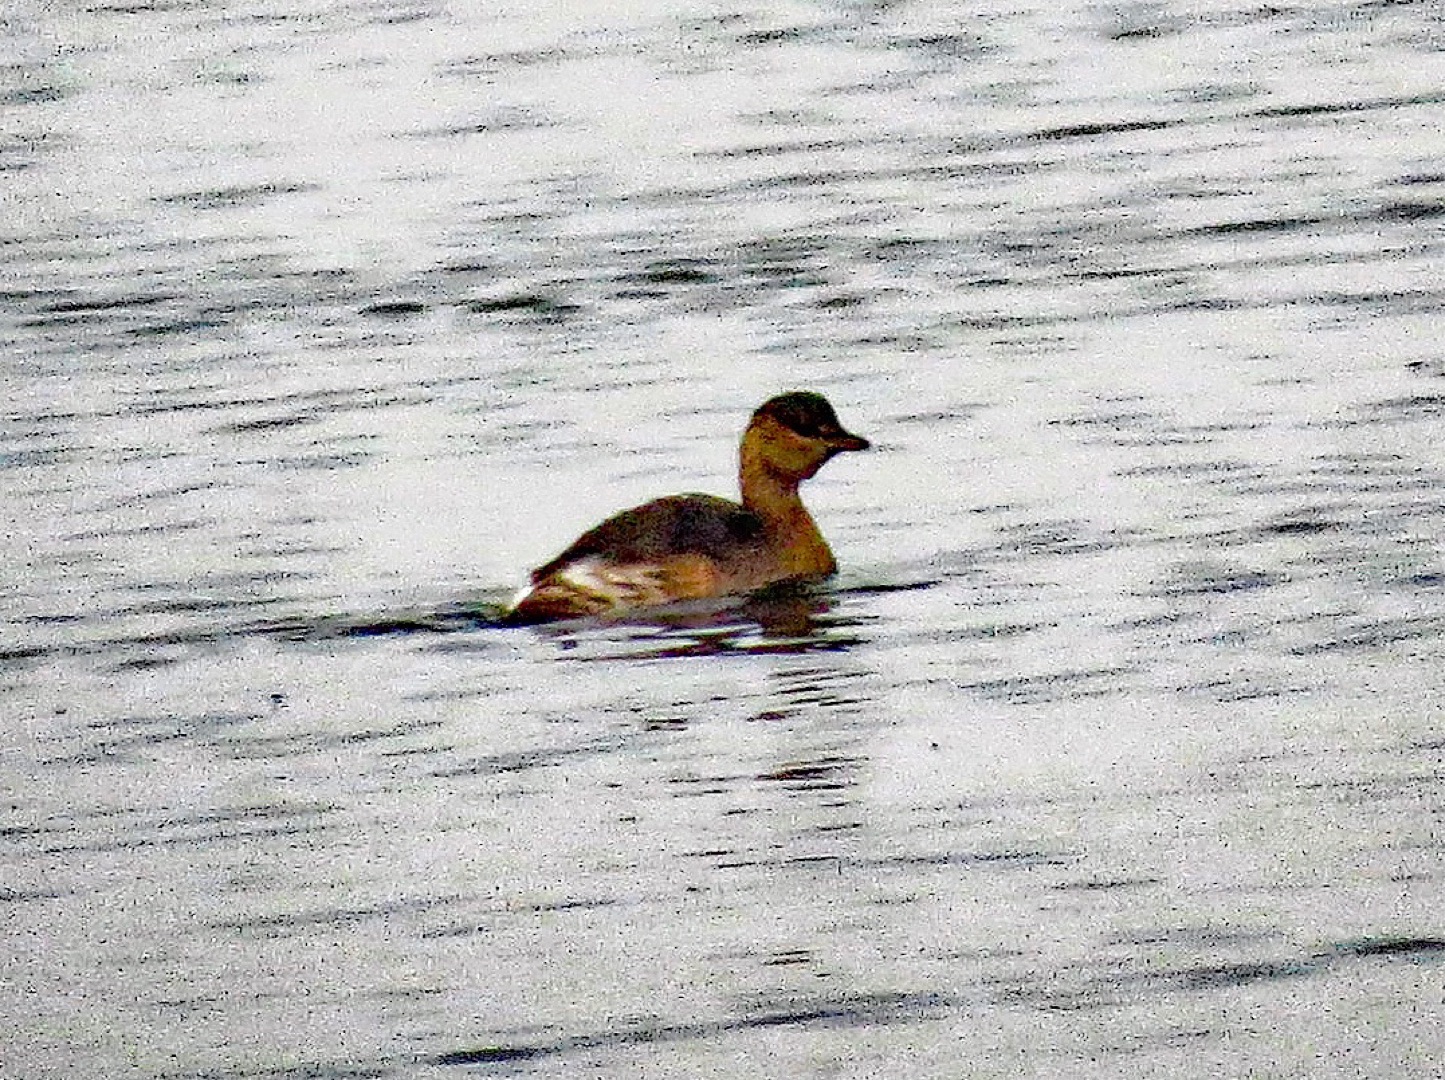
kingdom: Animalia
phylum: Chordata
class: Aves
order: Podicipediformes
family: Podicipedidae
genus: Tachybaptus
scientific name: Tachybaptus ruficollis
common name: Lille lappedykker
